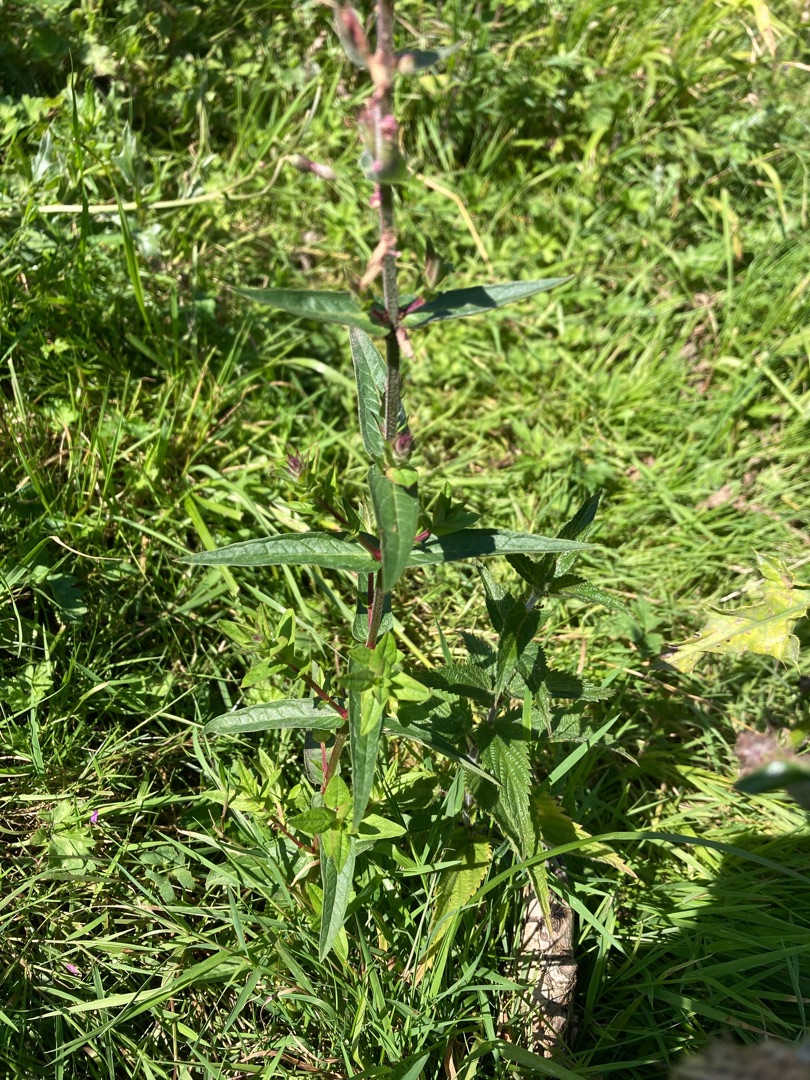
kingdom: Plantae
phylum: Tracheophyta
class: Magnoliopsida
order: Myrtales
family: Lythraceae
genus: Lythrum
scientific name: Lythrum salicaria
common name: Kattehale
